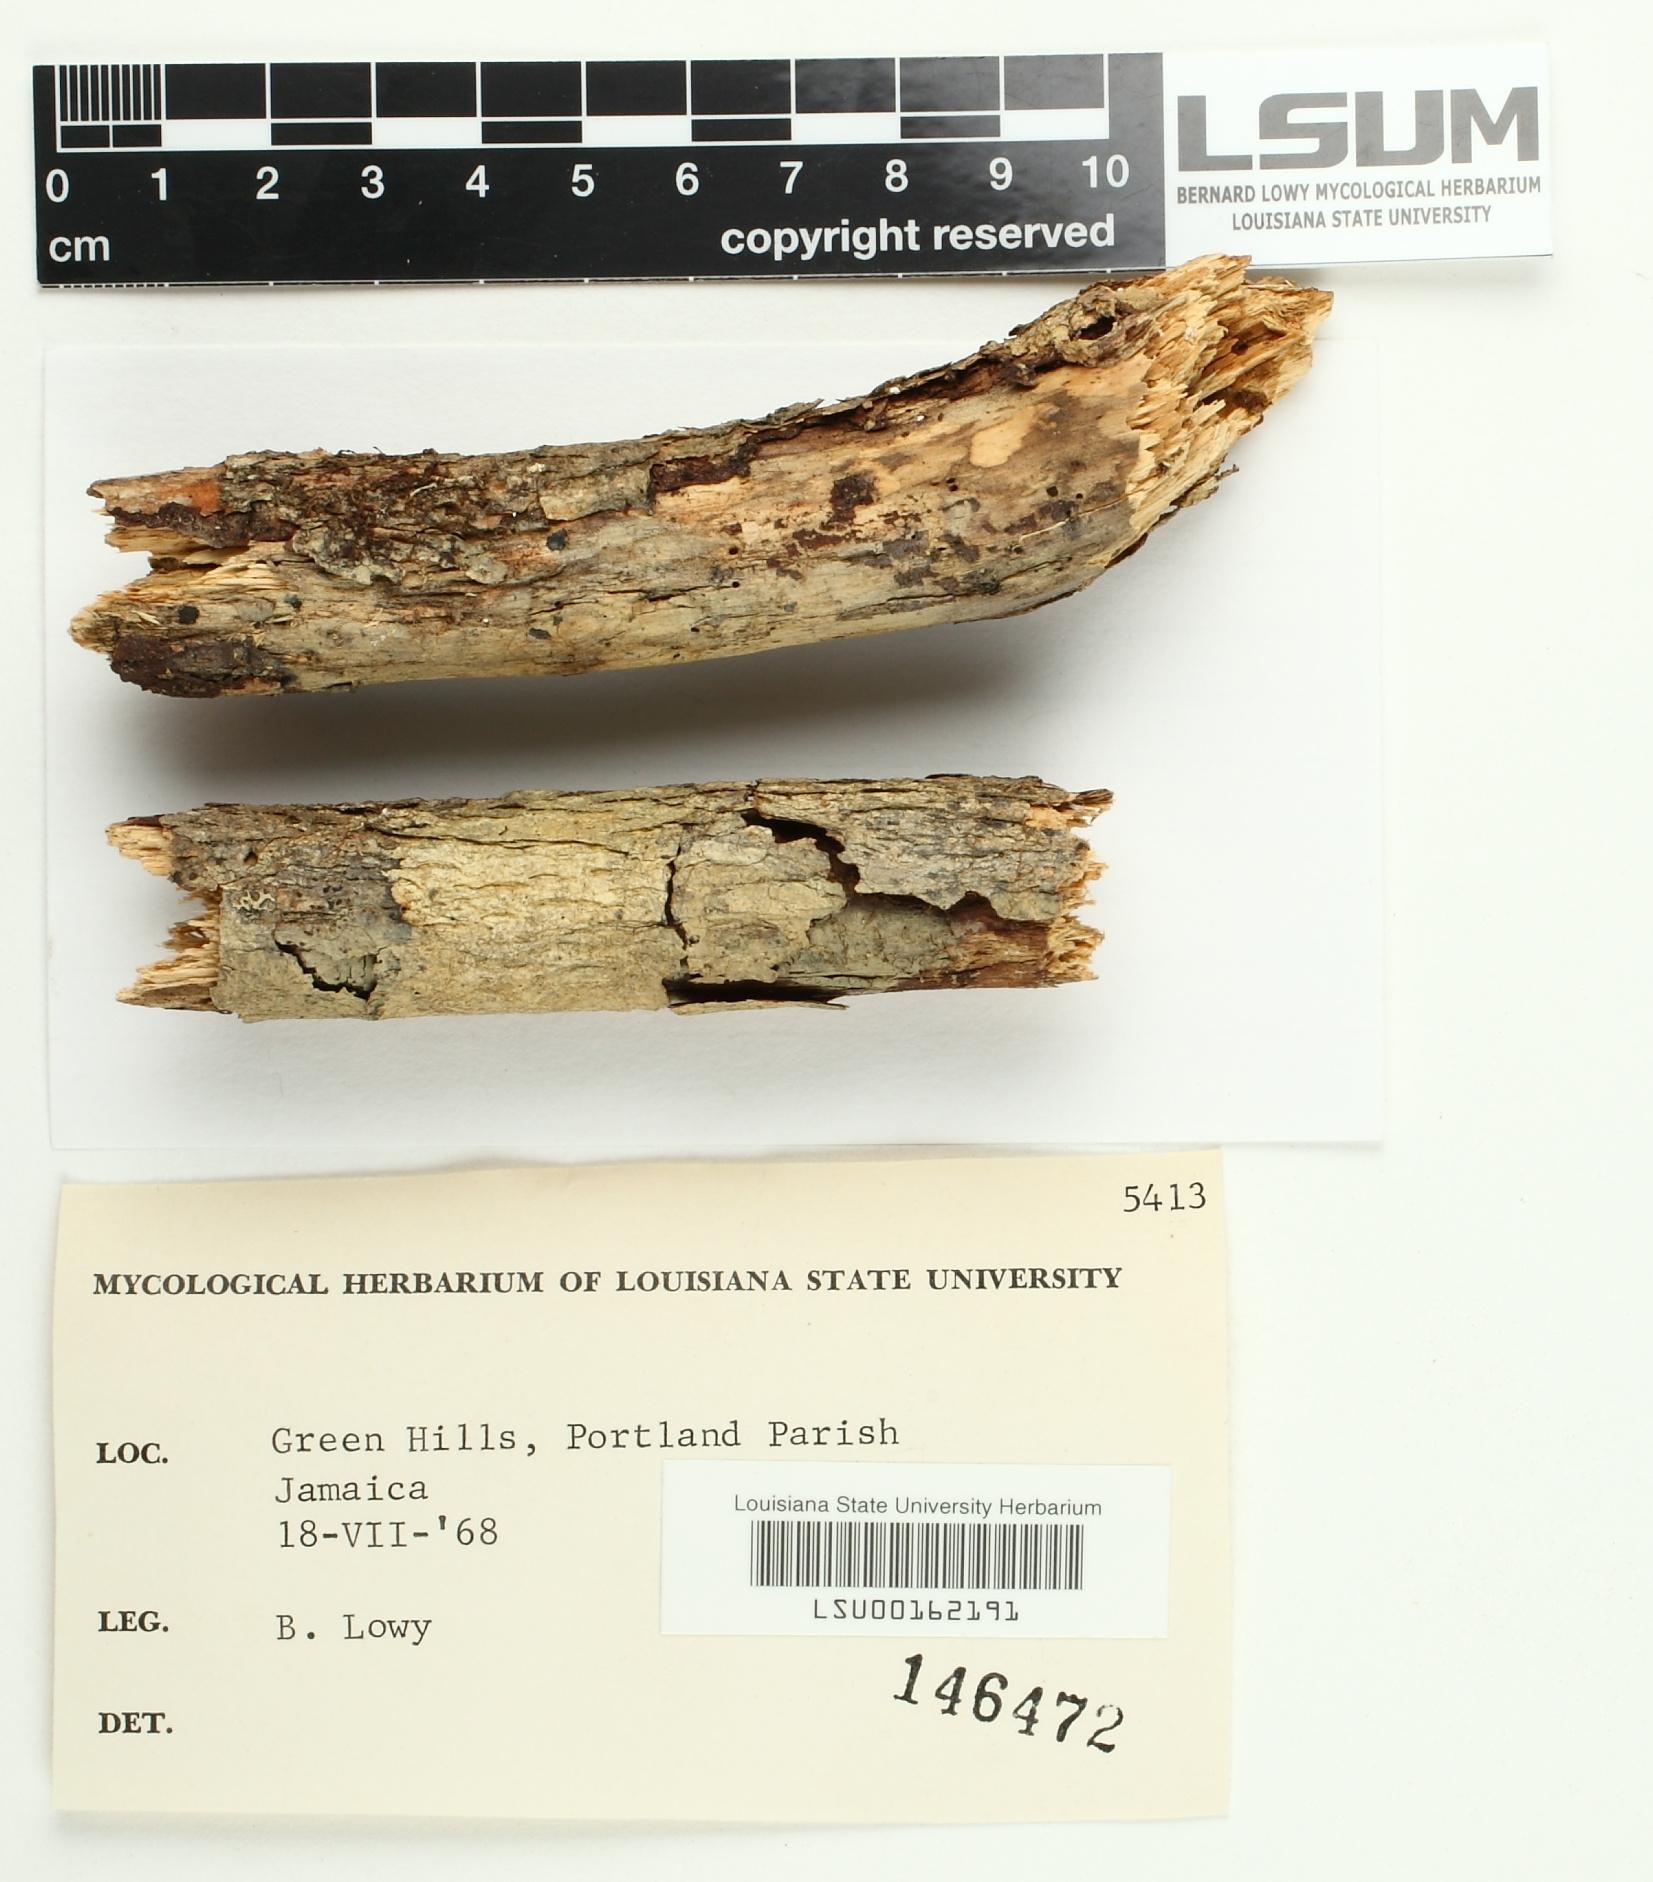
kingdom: Fungi
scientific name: Fungi
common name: Fungi
